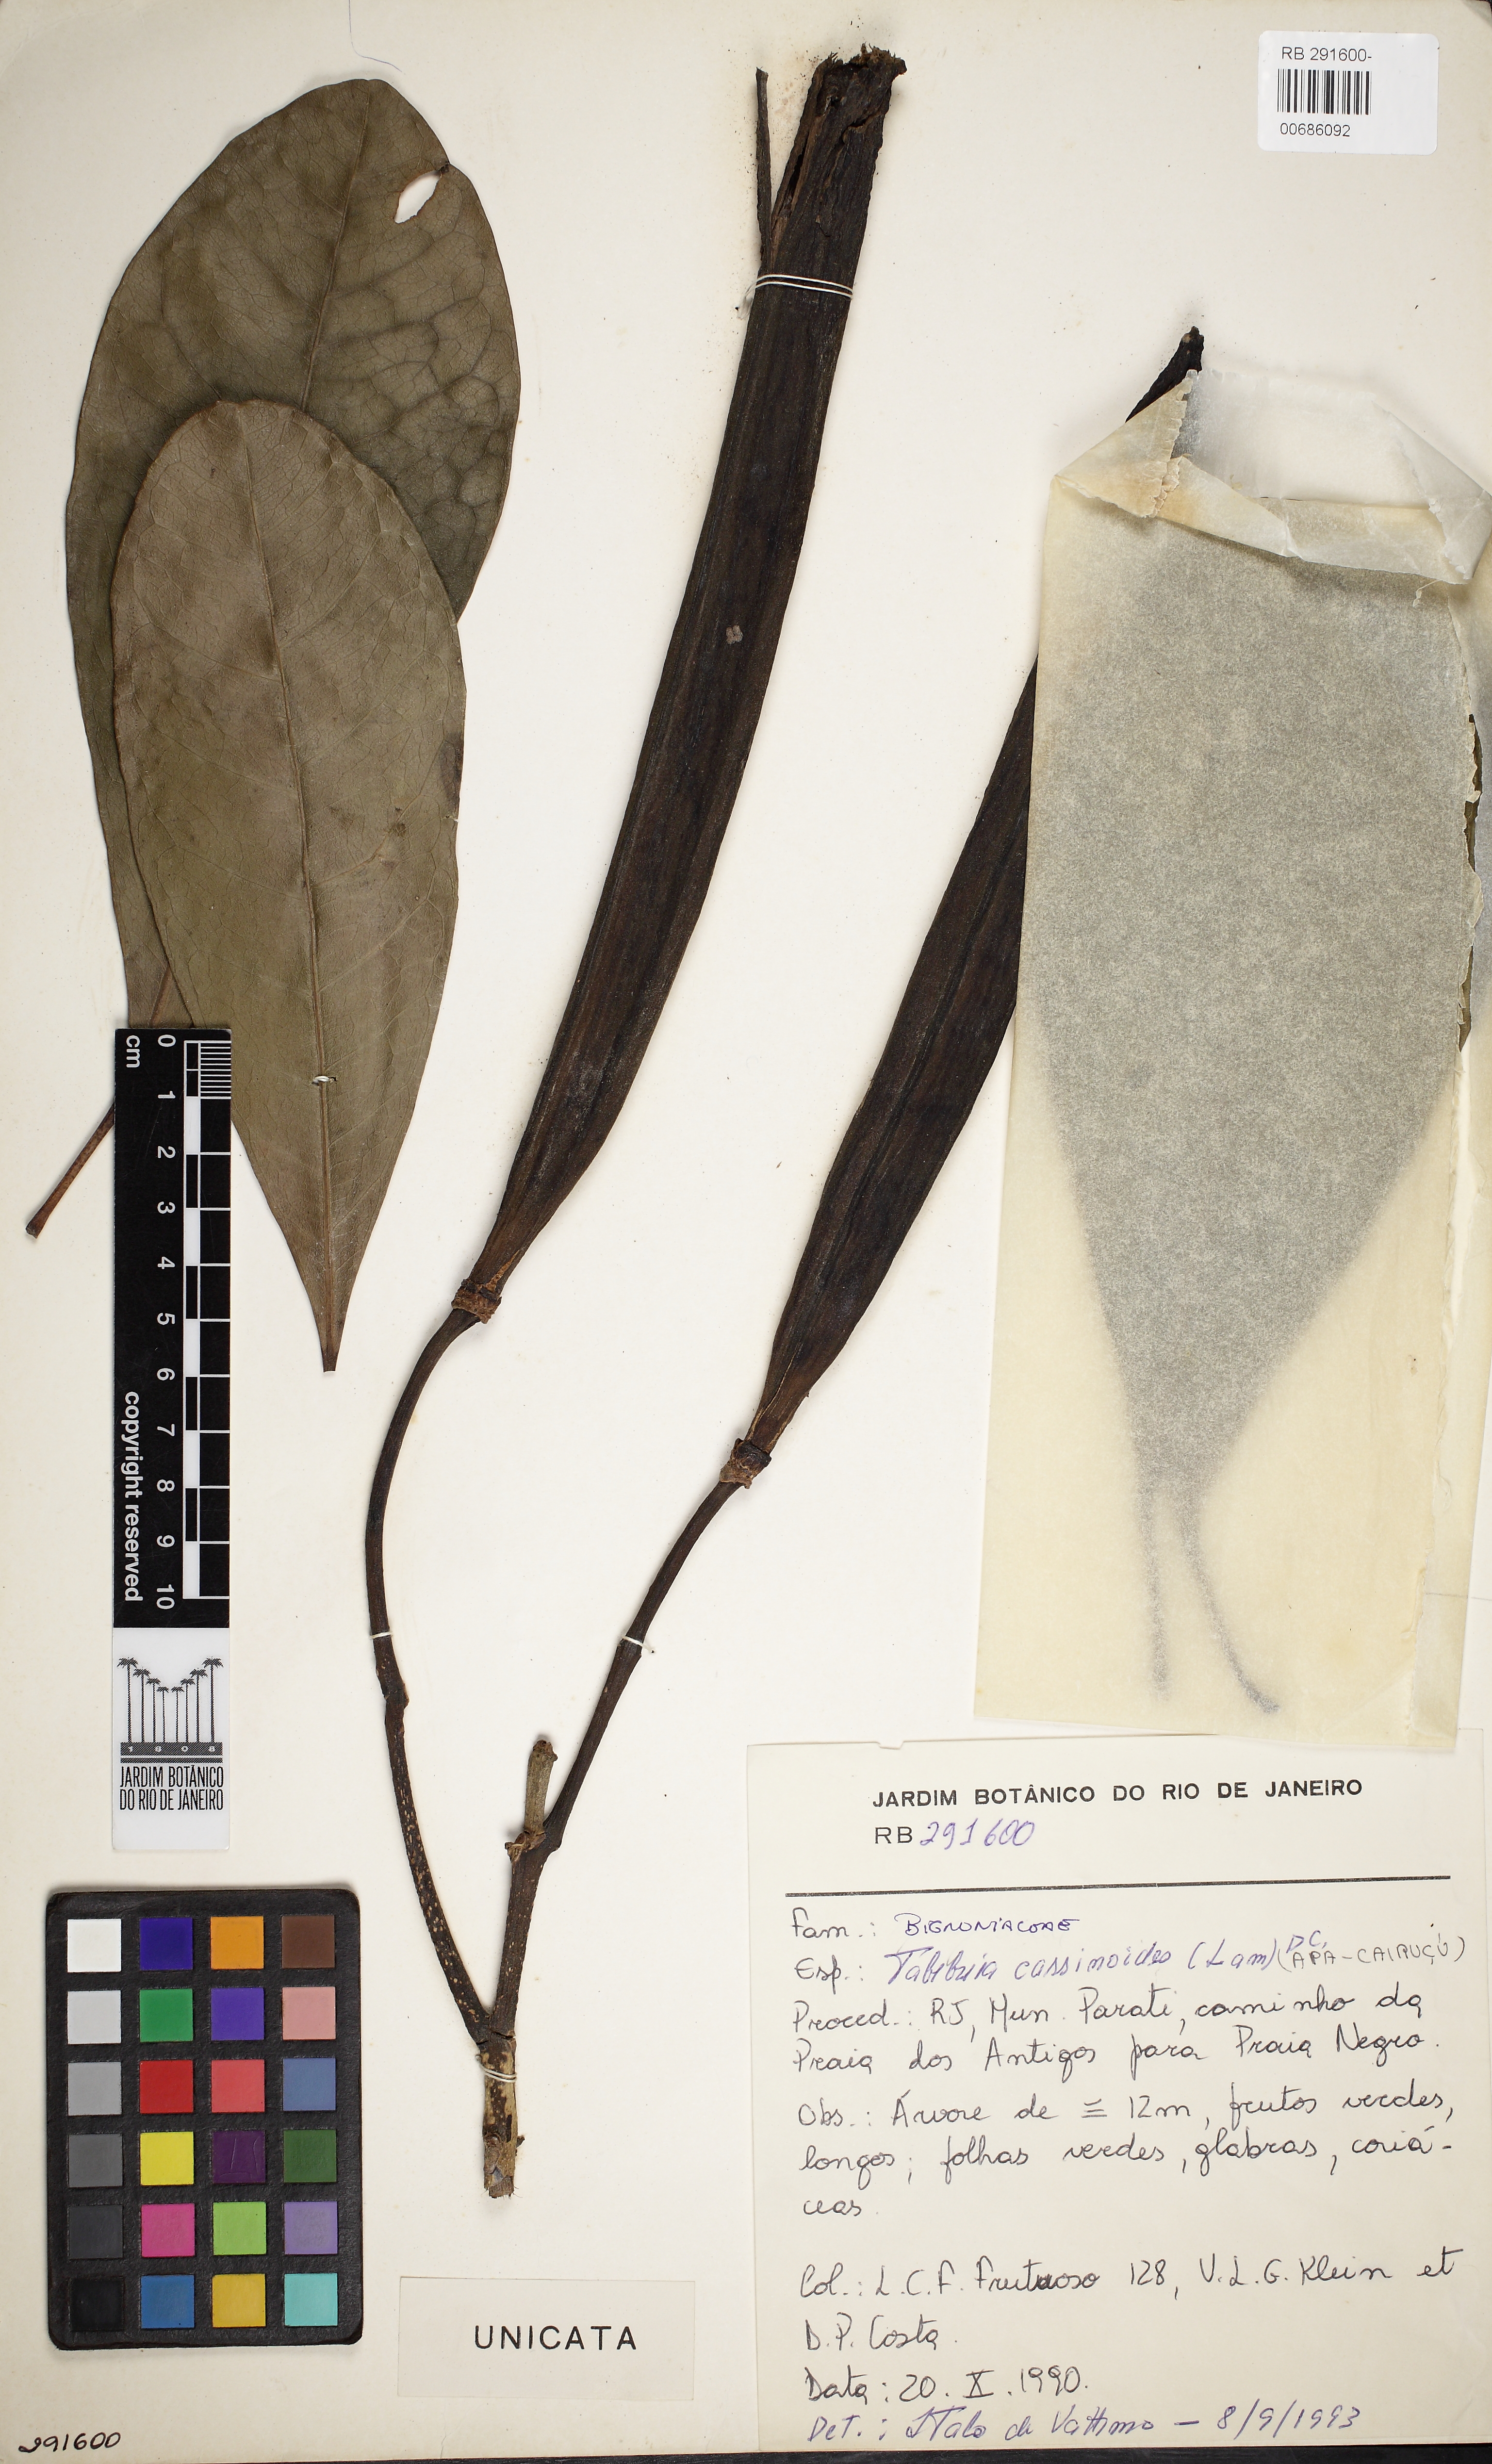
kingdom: Plantae
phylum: Tracheophyta
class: Magnoliopsida
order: Lamiales
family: Bignoniaceae
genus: Tabebuia
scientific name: Tabebuia cassinoides
